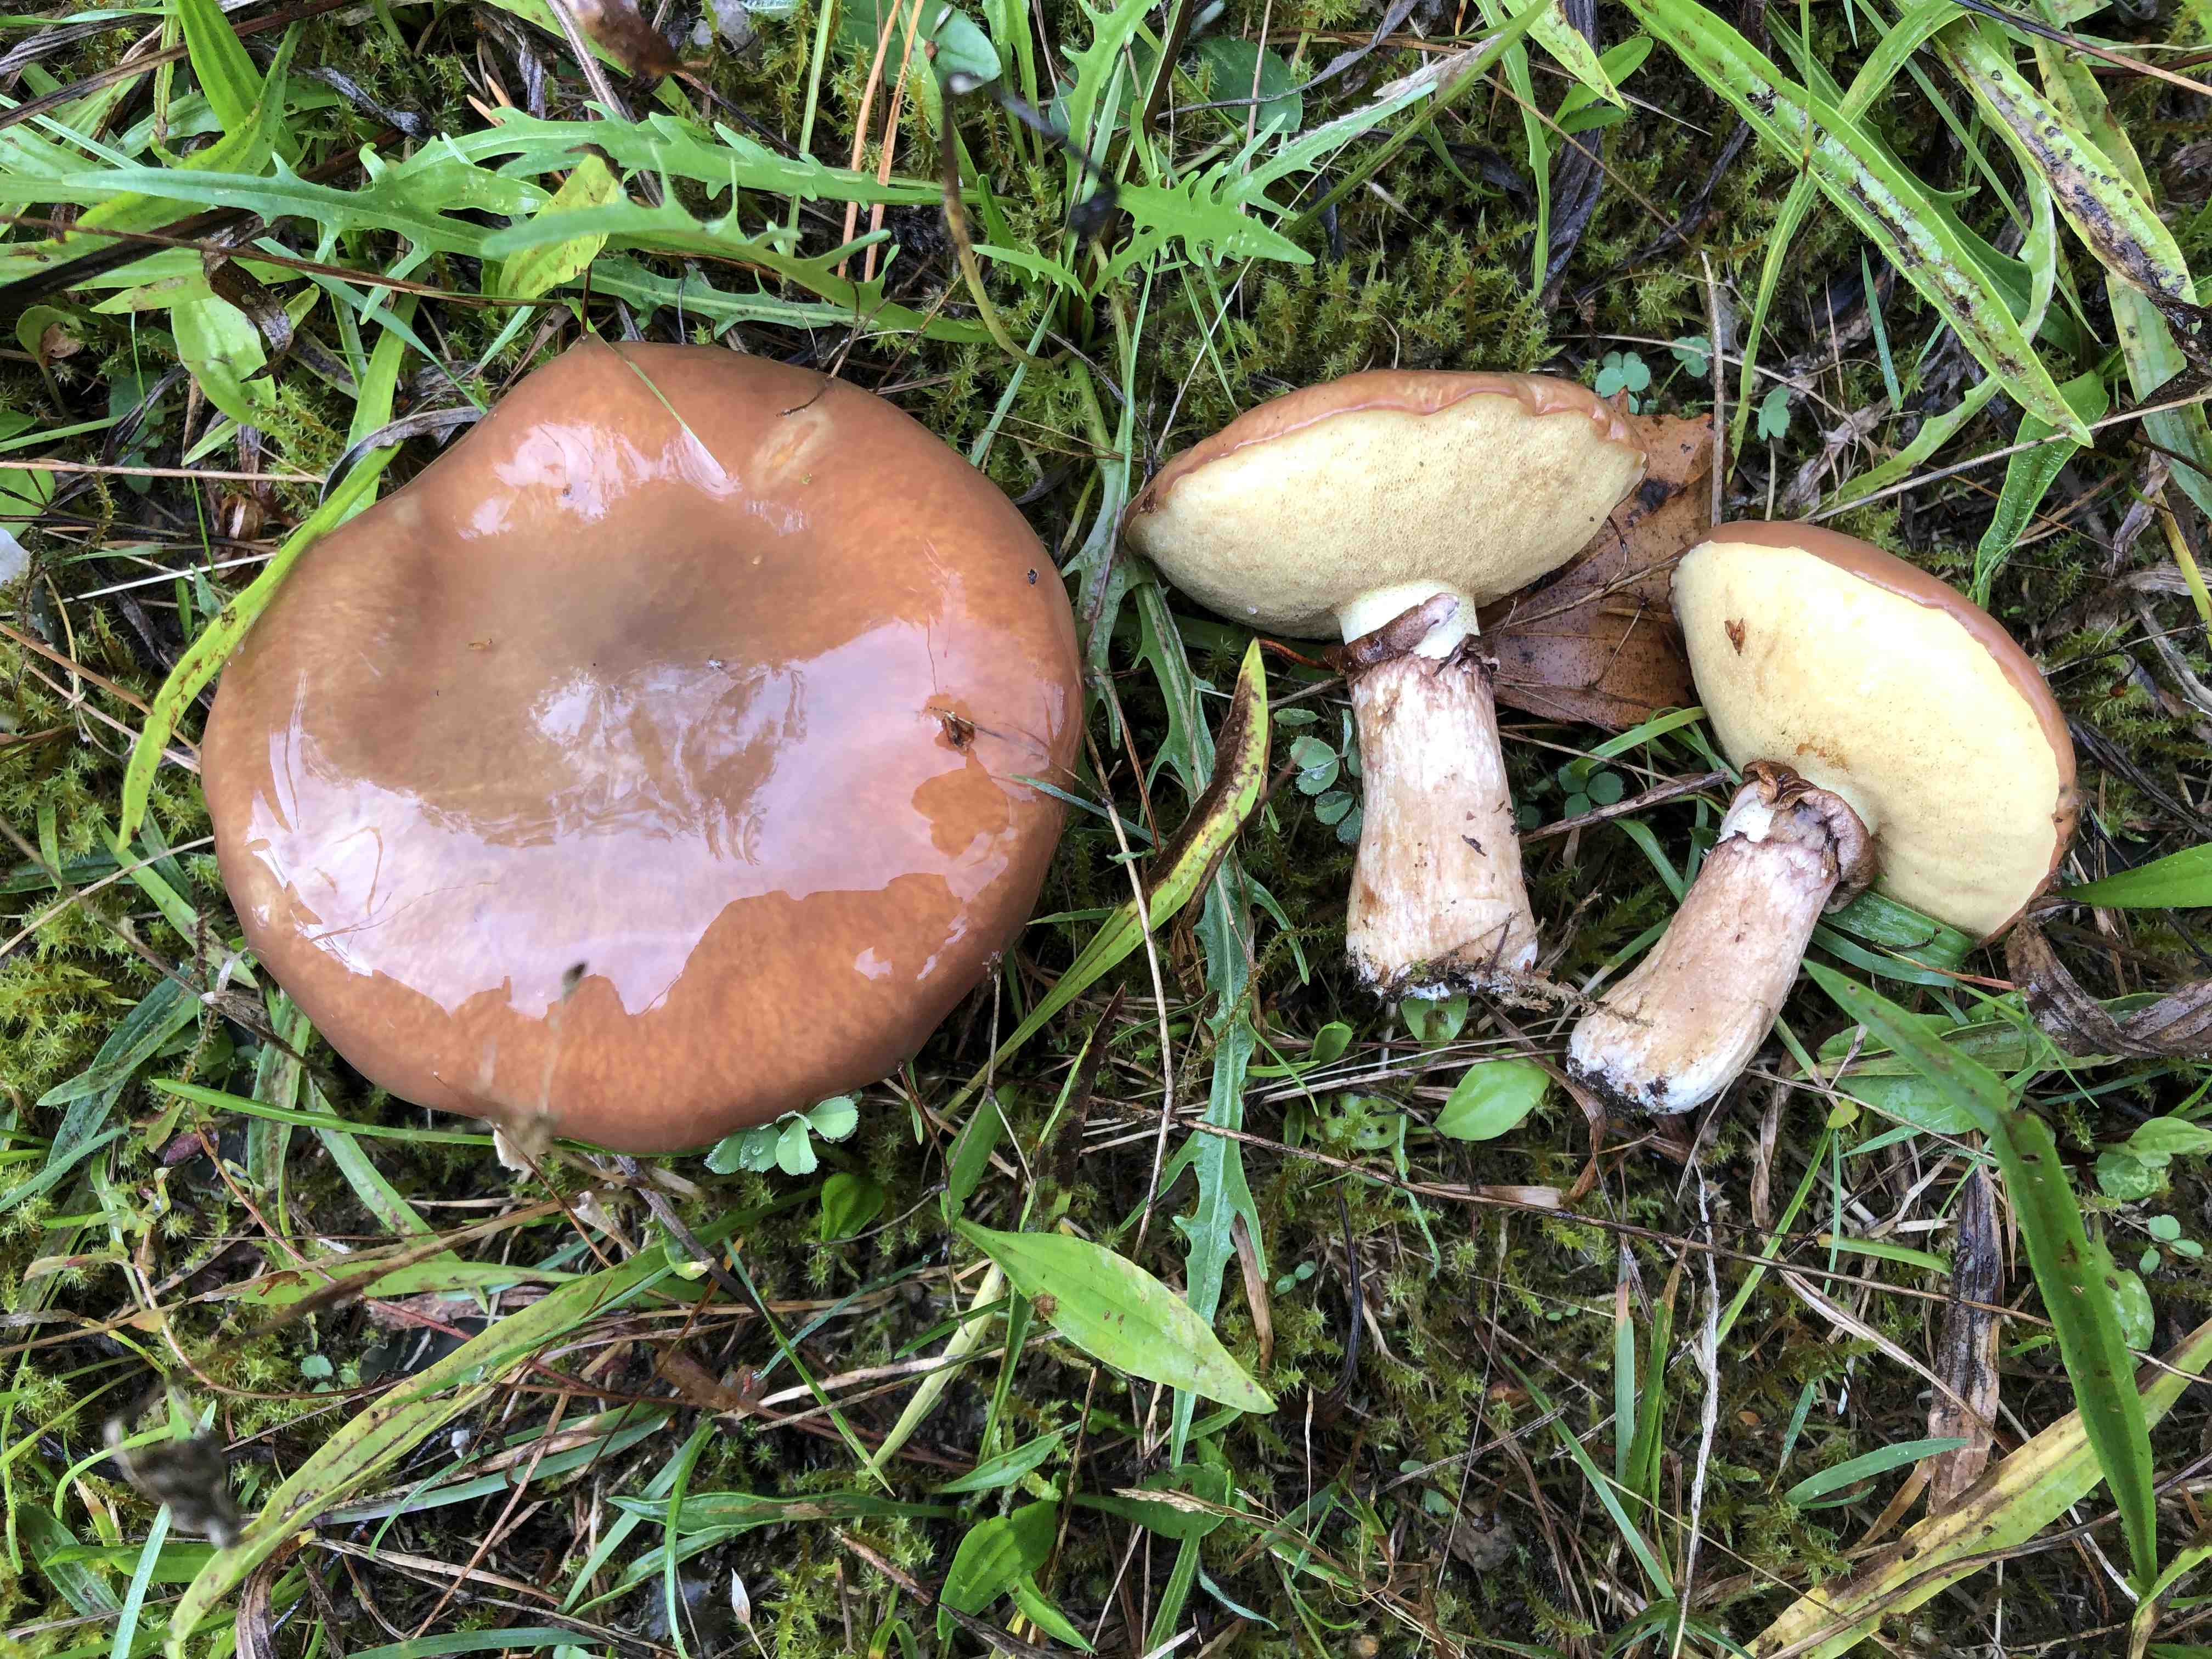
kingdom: Fungi
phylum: Basidiomycota
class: Agaricomycetes
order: Boletales
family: Suillaceae
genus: Suillus
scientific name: Suillus luteus
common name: brungul slimrørhat
